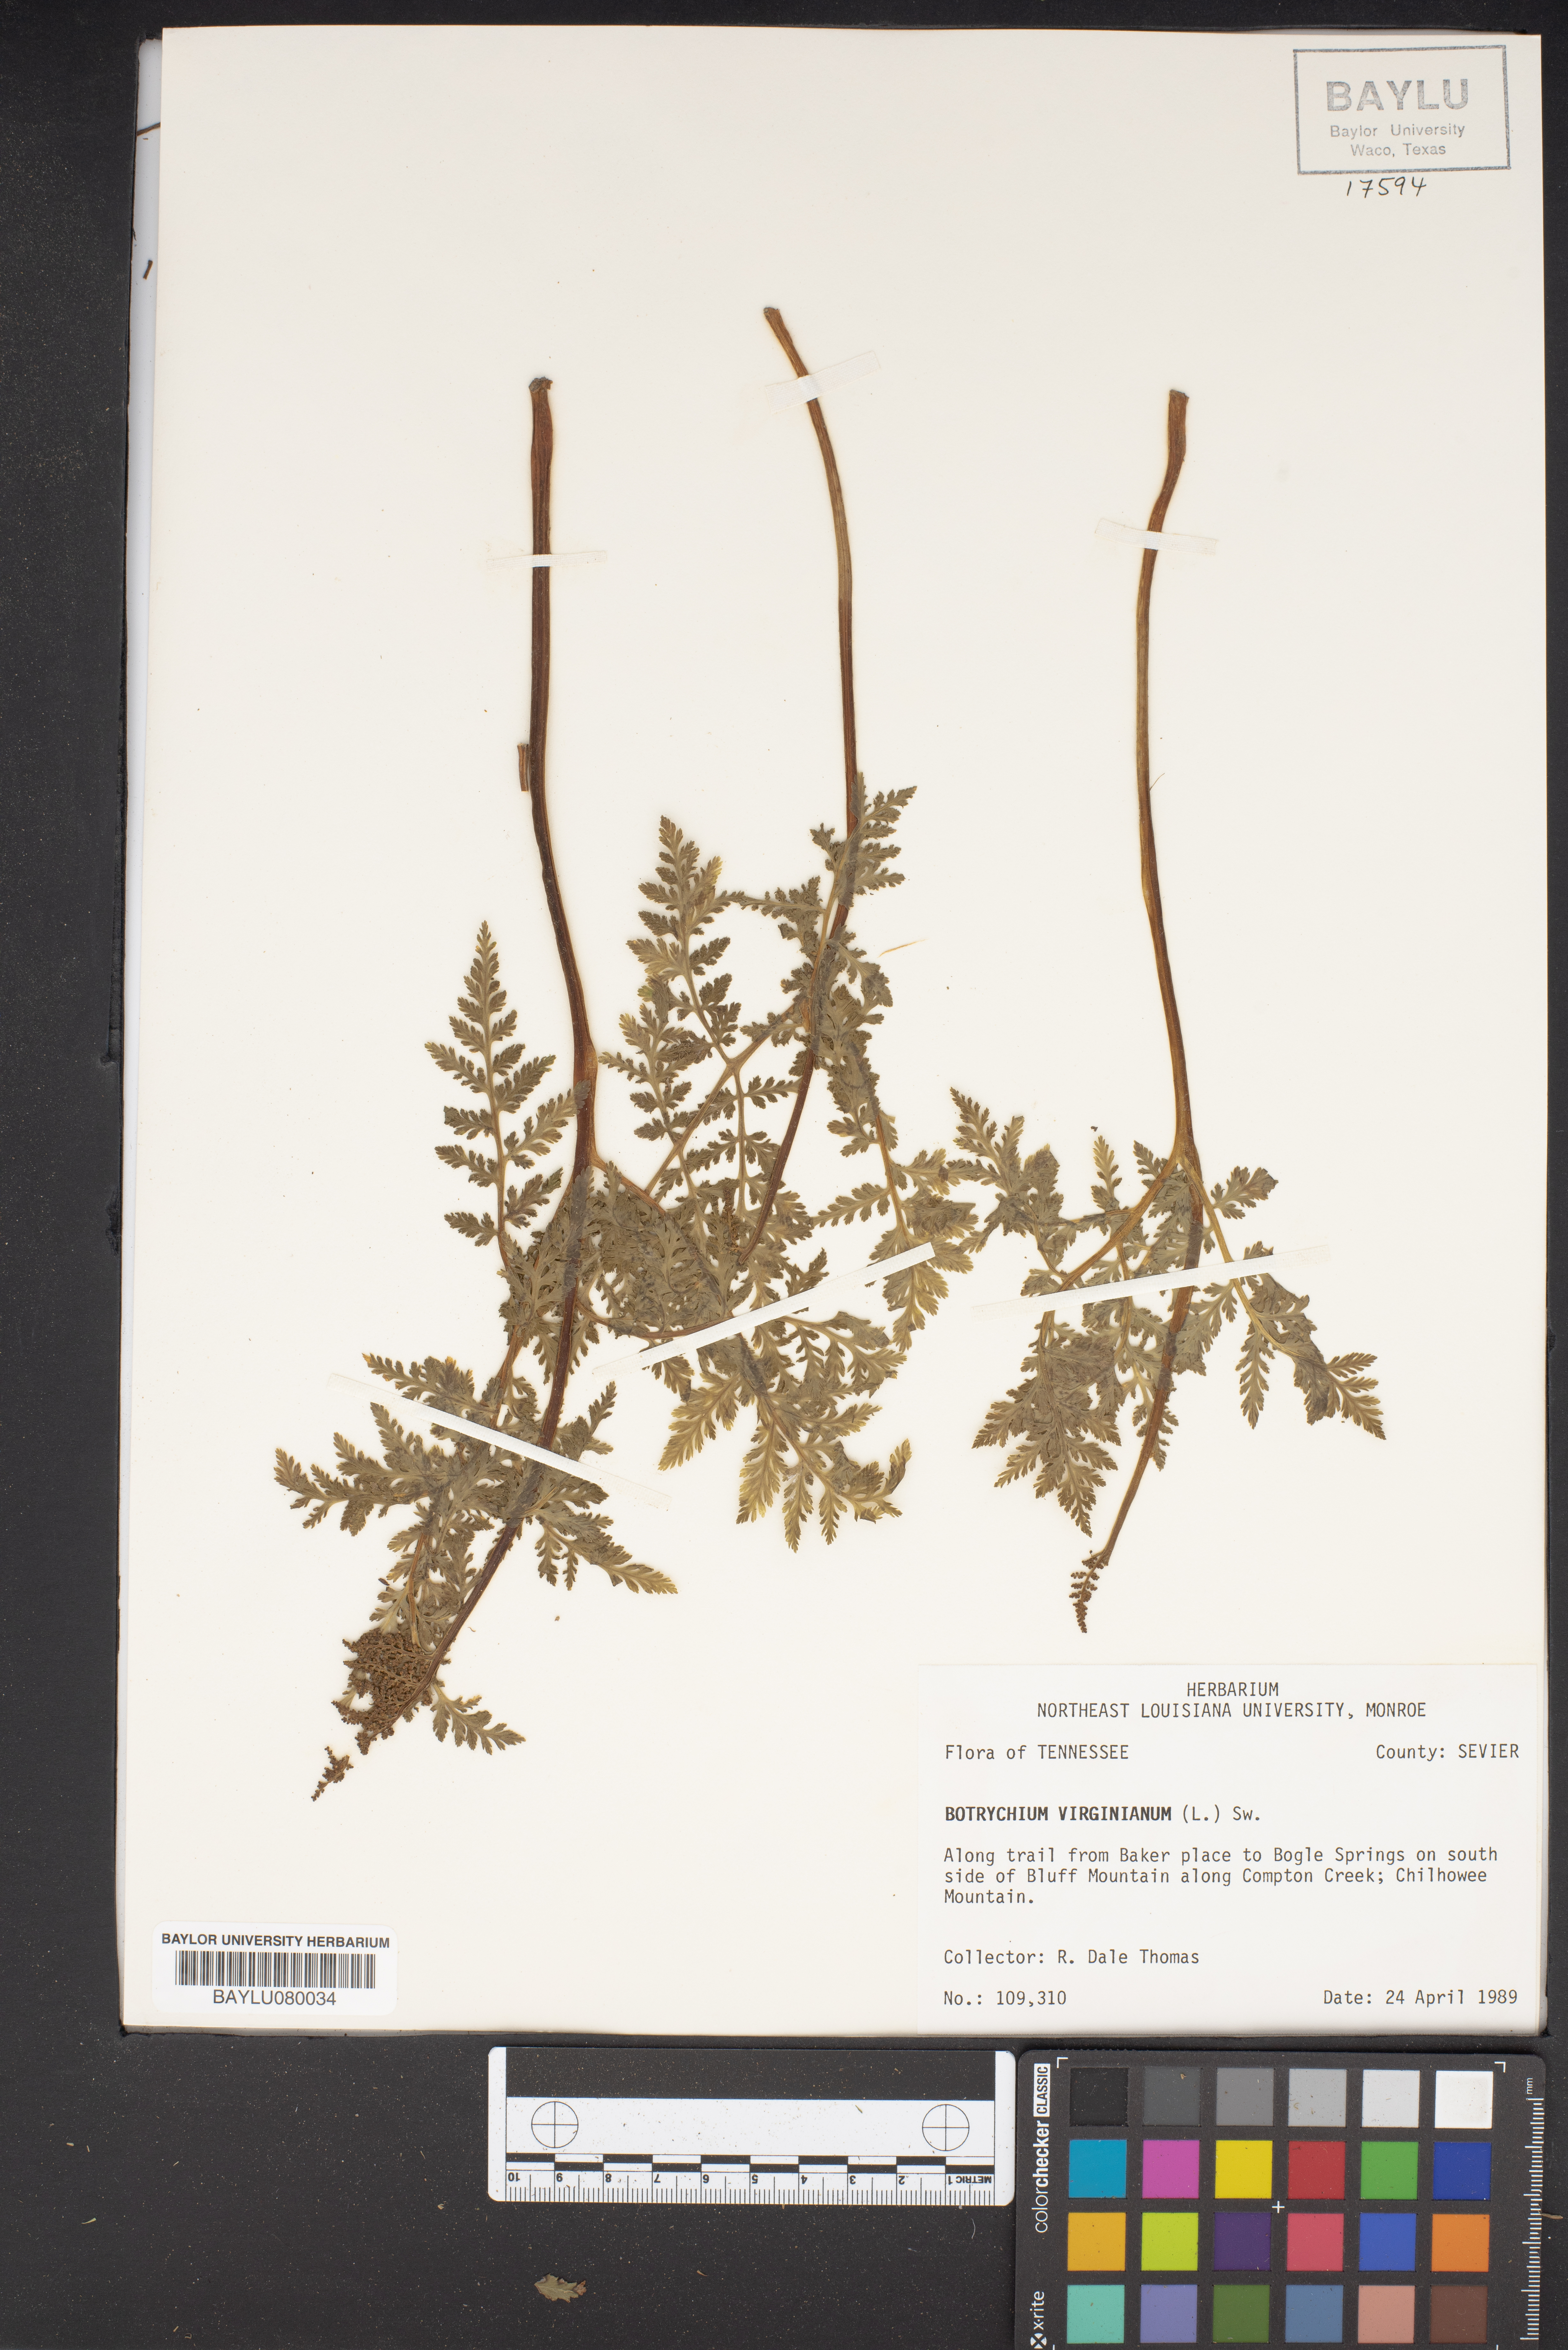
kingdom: Plantae
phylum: Tracheophyta
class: Polypodiopsida
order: Ophioglossales
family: Ophioglossaceae
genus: Botrypus
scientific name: Botrypus virginianus
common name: Common grapefern
